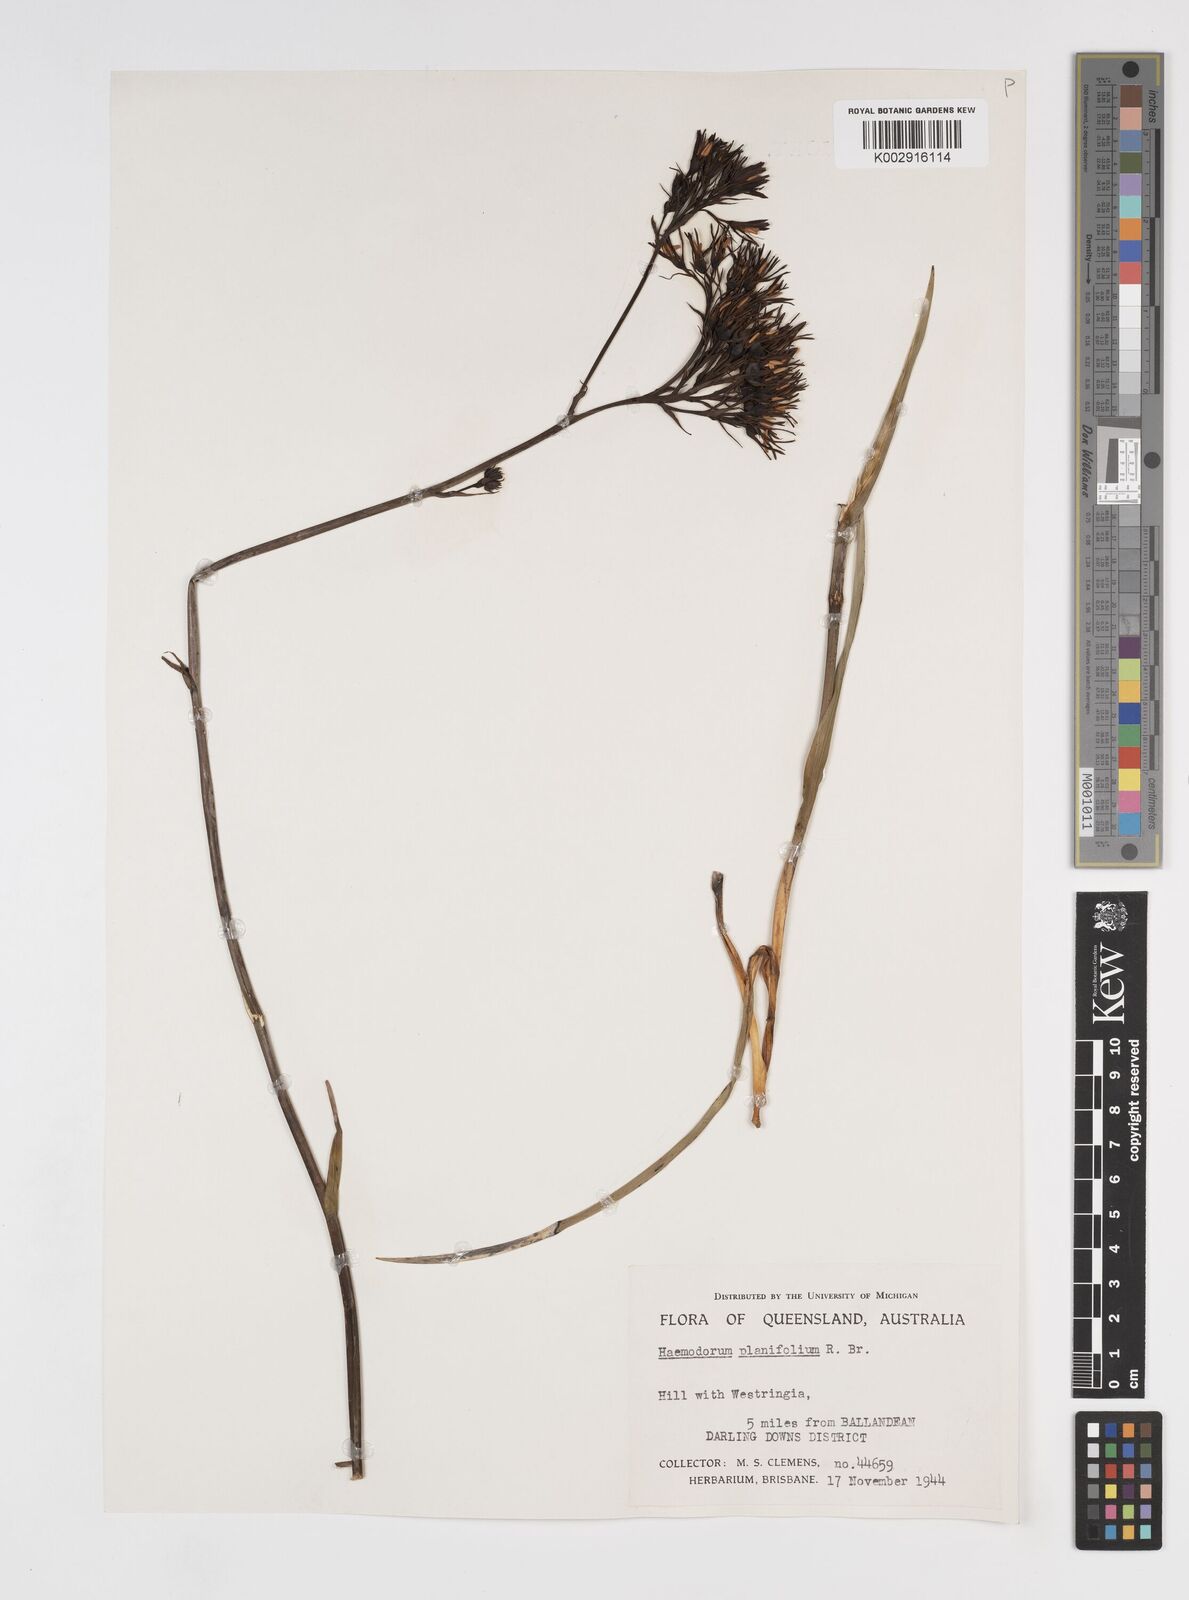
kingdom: Plantae
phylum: Tracheophyta
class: Liliopsida
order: Commelinales
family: Haemodoraceae
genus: Haemodorum
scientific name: Haemodorum planifolium
